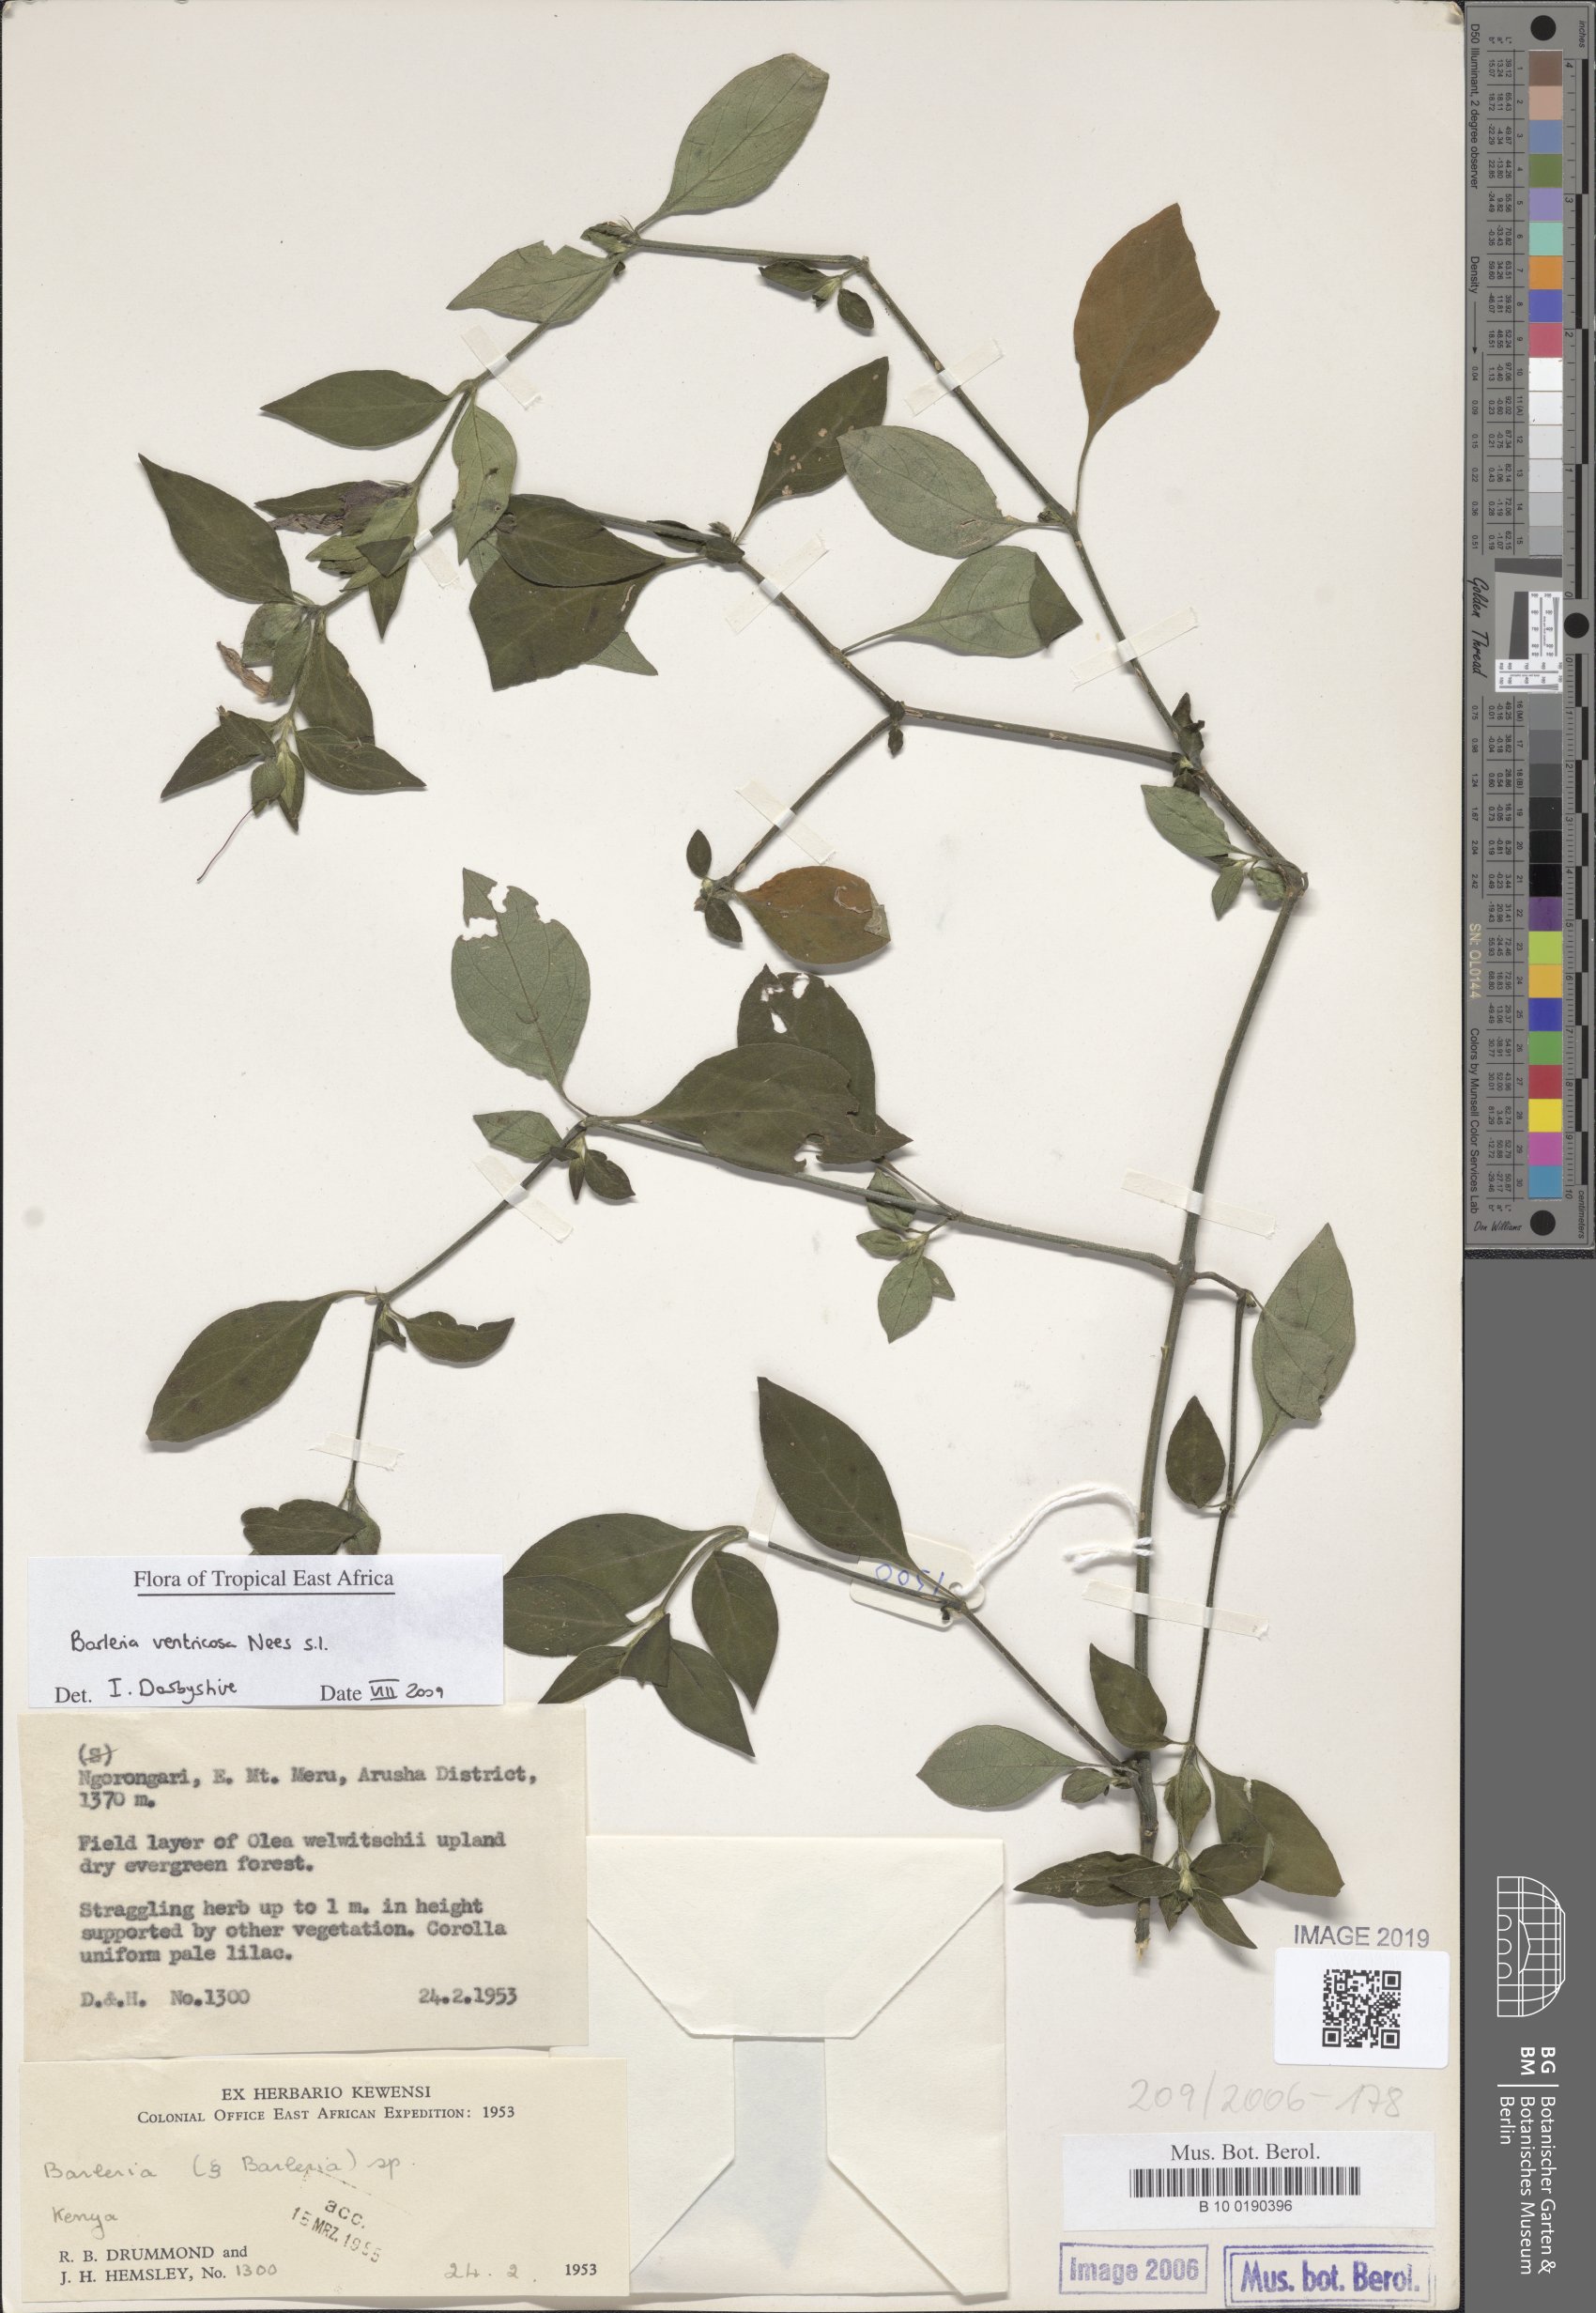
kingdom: Plantae
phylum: Tracheophyta
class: Magnoliopsida
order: Lamiales
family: Acanthaceae
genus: Barleria
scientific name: Barleria ventricosa
